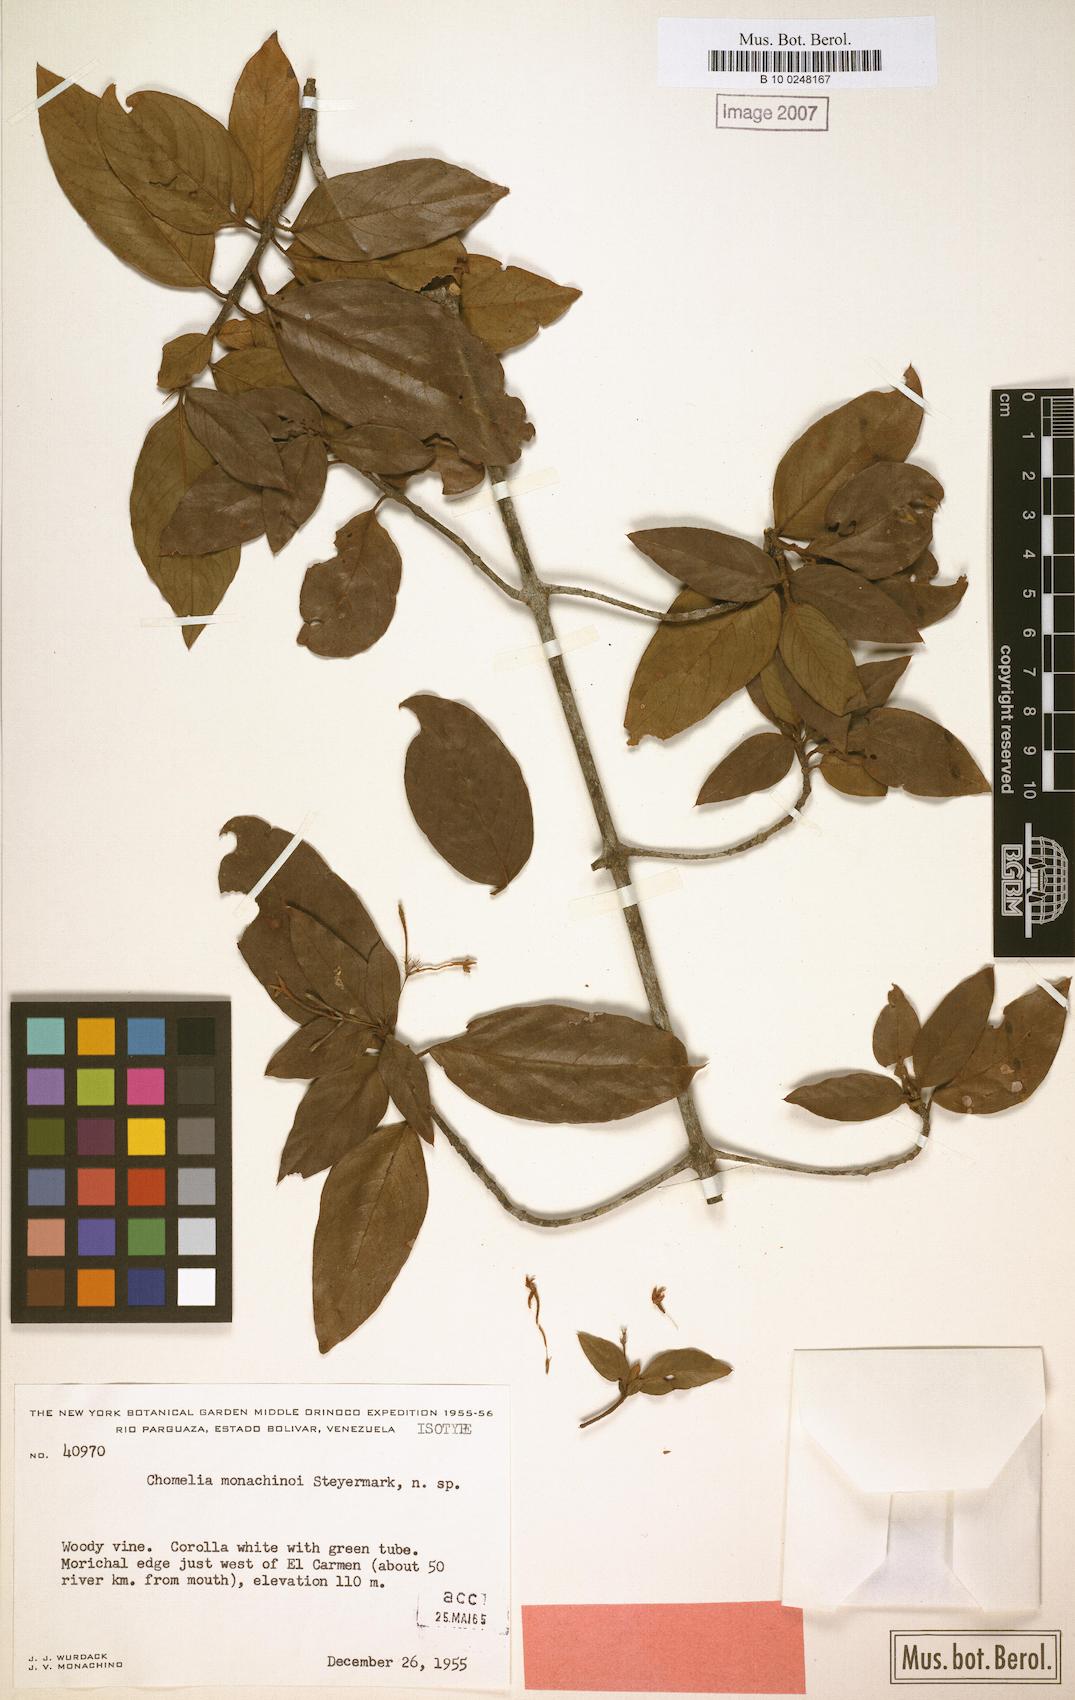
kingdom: Plantae
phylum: Tracheophyta
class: Magnoliopsida
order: Gentianales
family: Rubiaceae
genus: Chomelia
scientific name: Chomelia monachinoi
